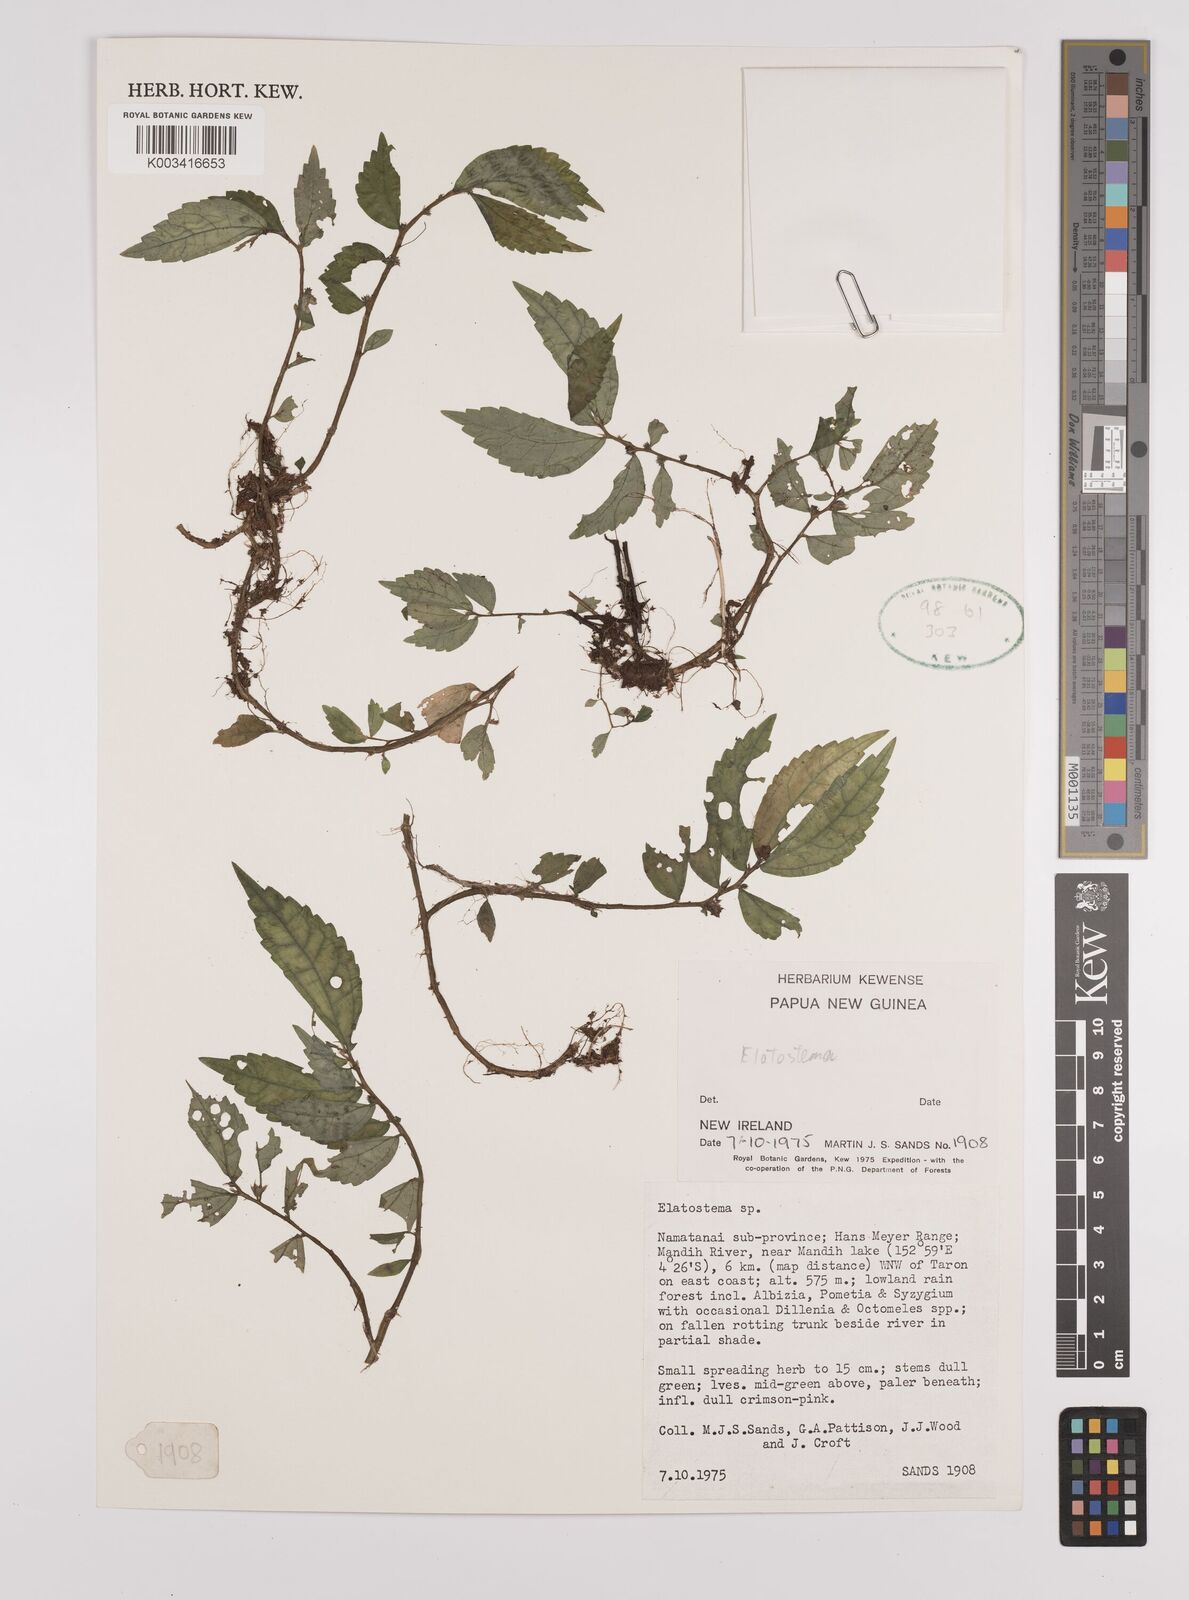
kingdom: Plantae
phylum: Tracheophyta
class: Magnoliopsida
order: Rosales
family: Urticaceae
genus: Elatostema
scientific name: Elatostema
